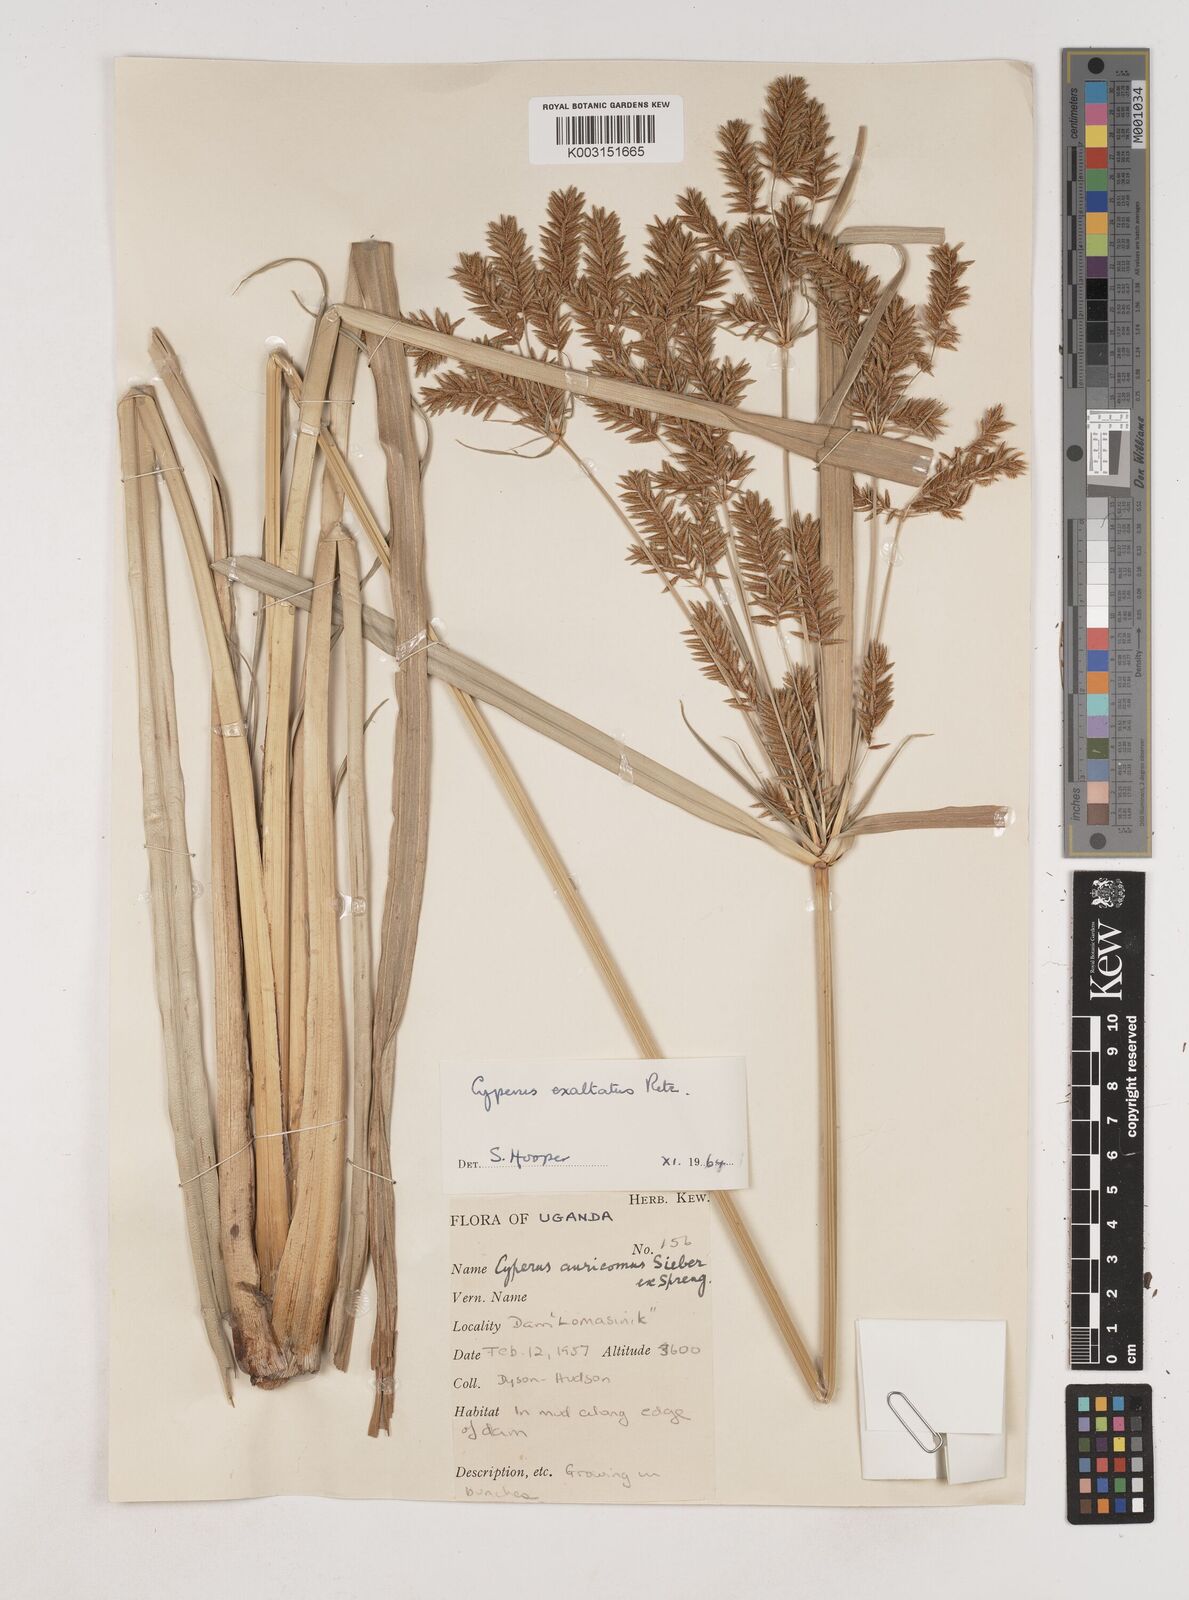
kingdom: Plantae
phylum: Tracheophyta
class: Liliopsida
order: Poales
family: Cyperaceae
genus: Cyperus
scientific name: Cyperus exaltatus
